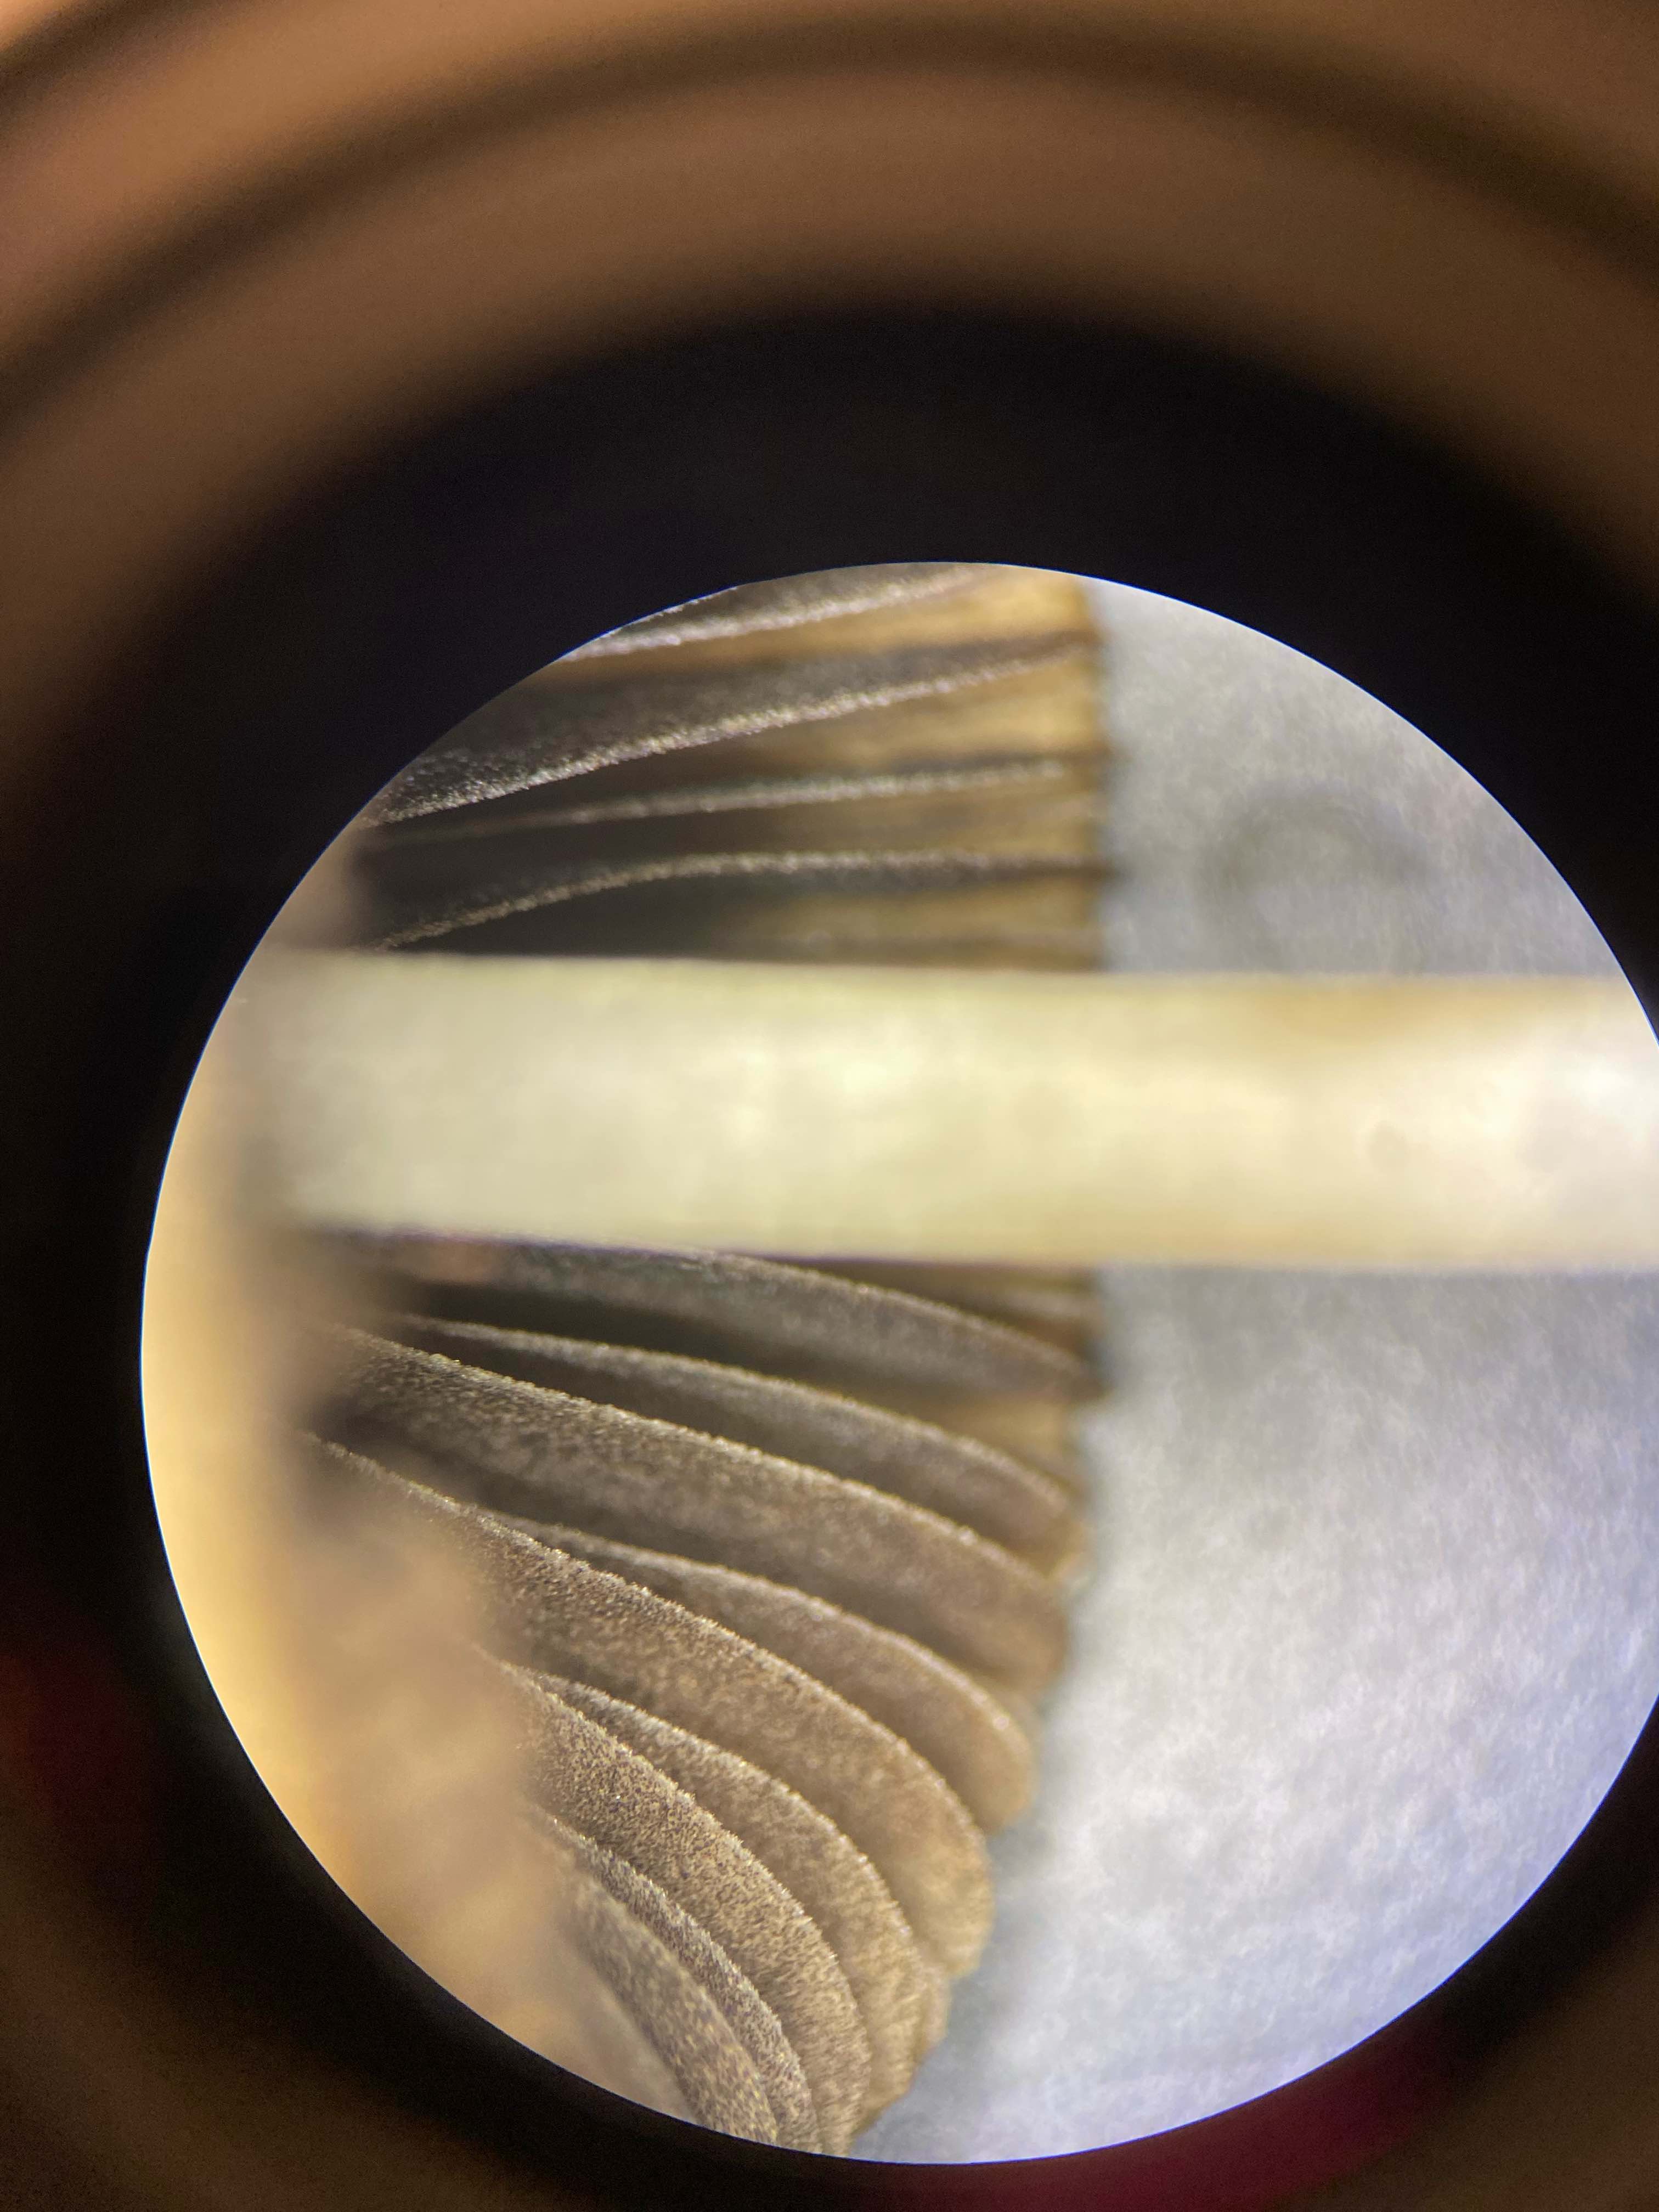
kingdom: Fungi
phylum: Basidiomycota
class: Agaricomycetes
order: Agaricales
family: Psathyrellaceae
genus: Psathyrella
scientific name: Psathyrella
